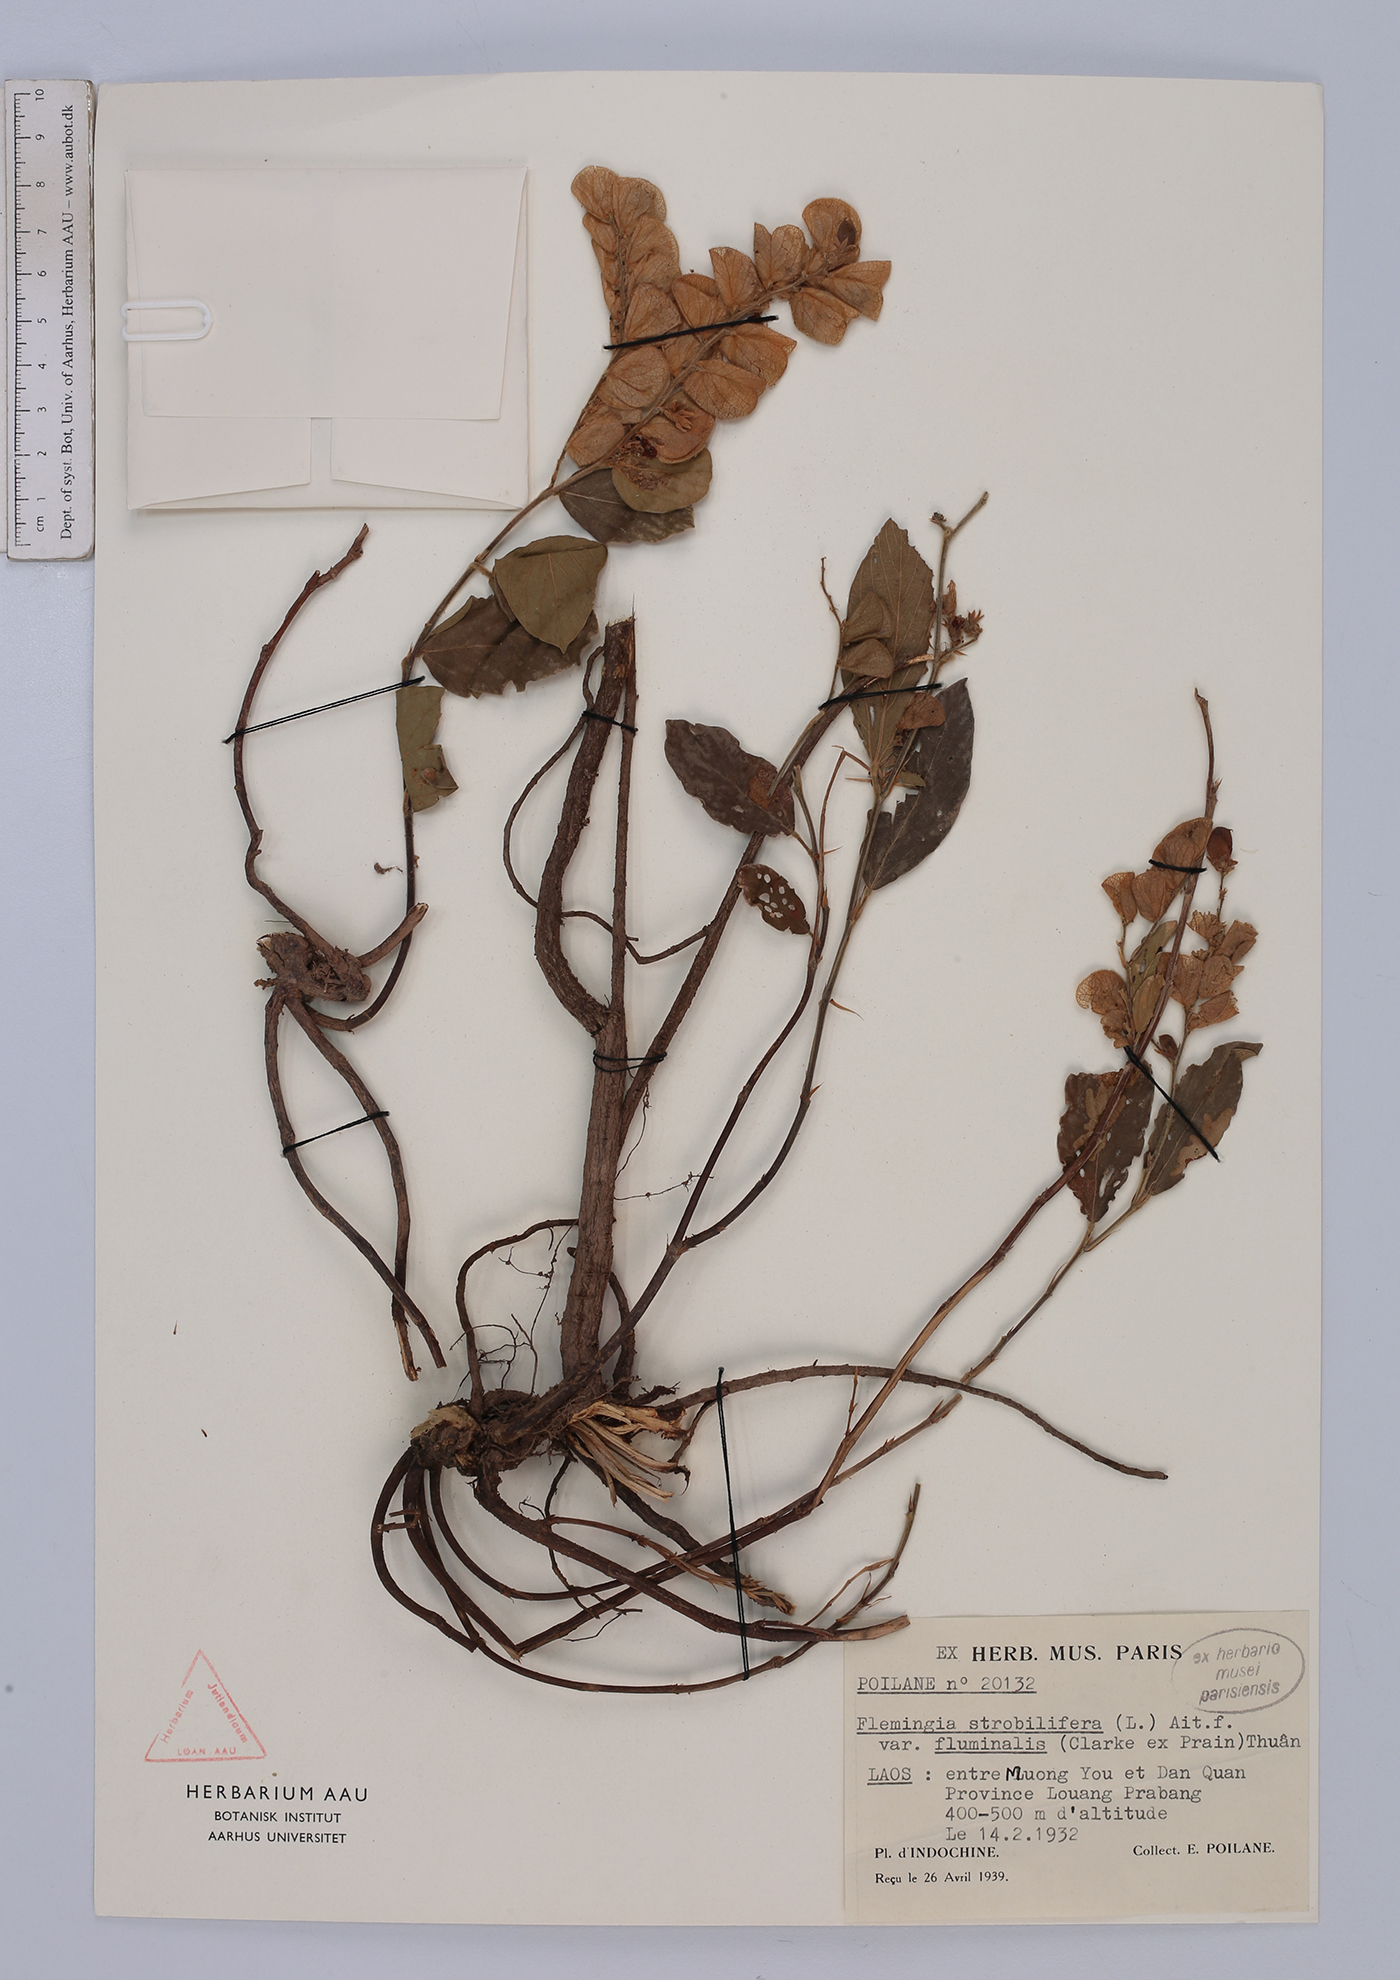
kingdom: Plantae
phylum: Tracheophyta
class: Magnoliopsida
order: Fabales
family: Fabaceae
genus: Flemingia
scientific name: Flemingia fluminalis
